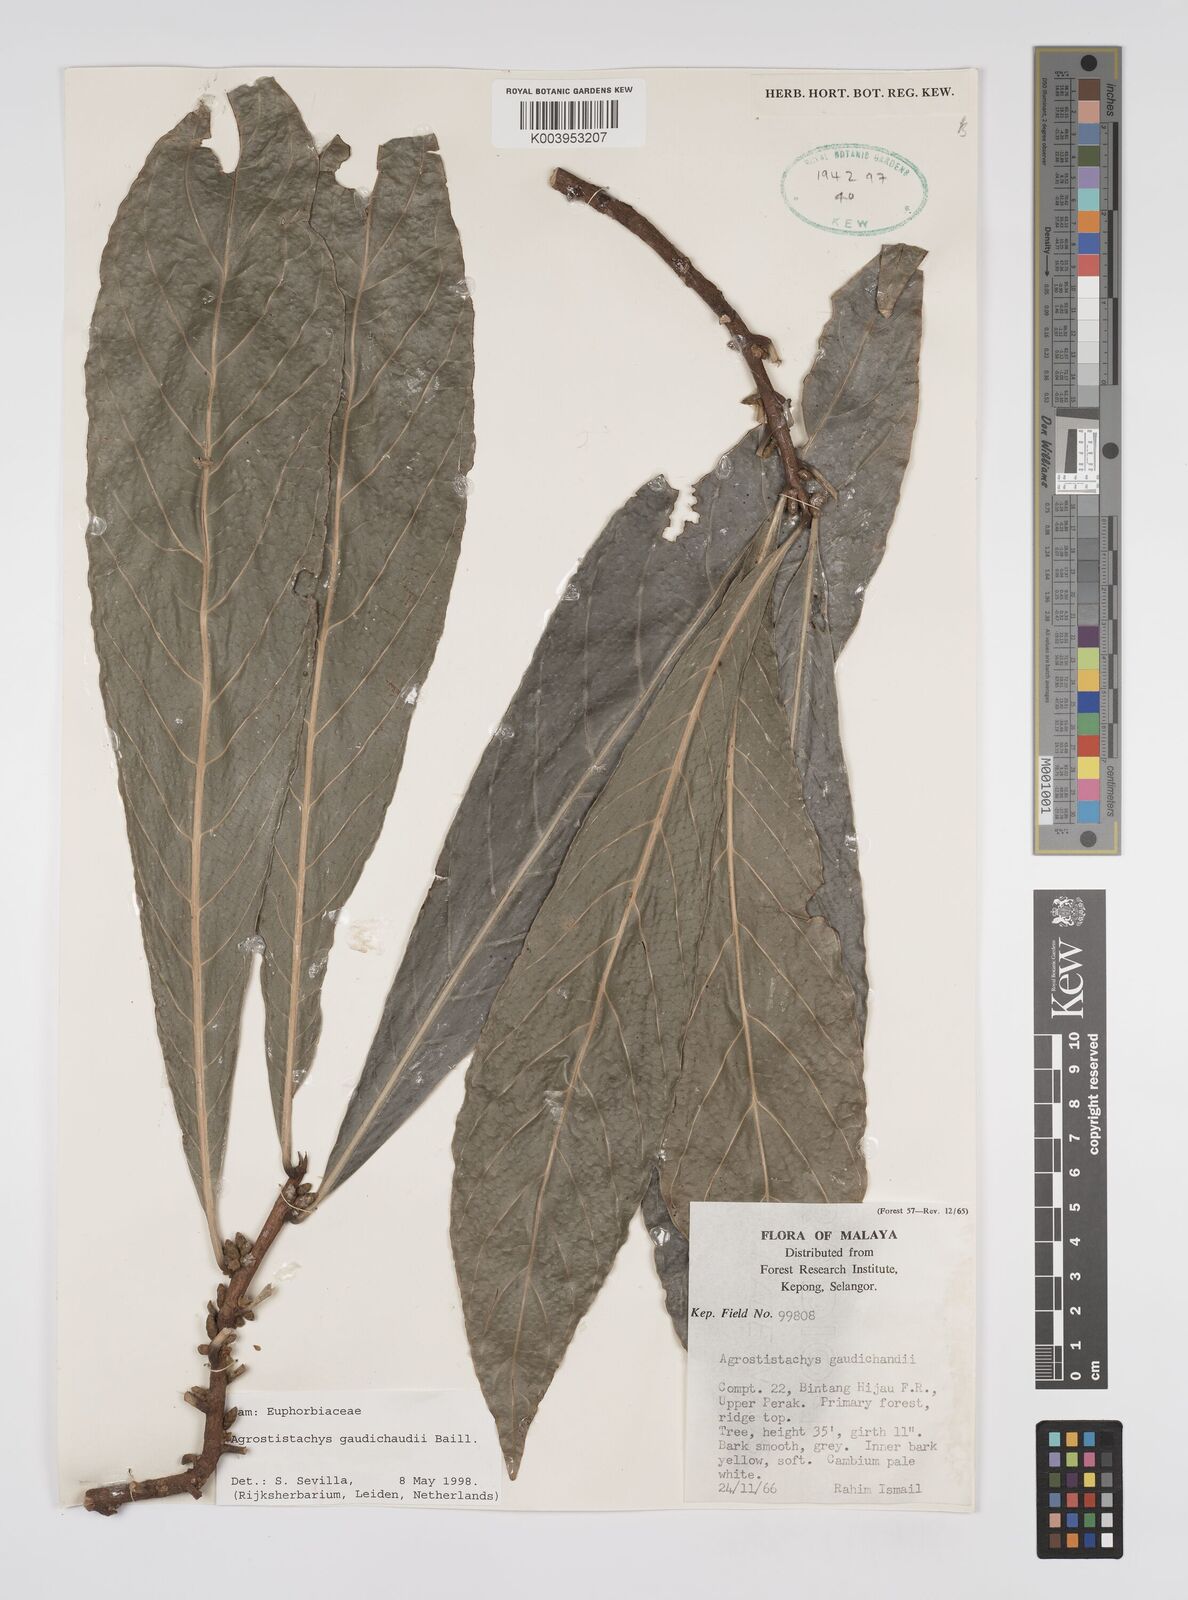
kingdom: Plantae
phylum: Tracheophyta
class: Magnoliopsida
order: Malpighiales
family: Euphorbiaceae
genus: Agrostistachys
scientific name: Agrostistachys gaudichaudii
